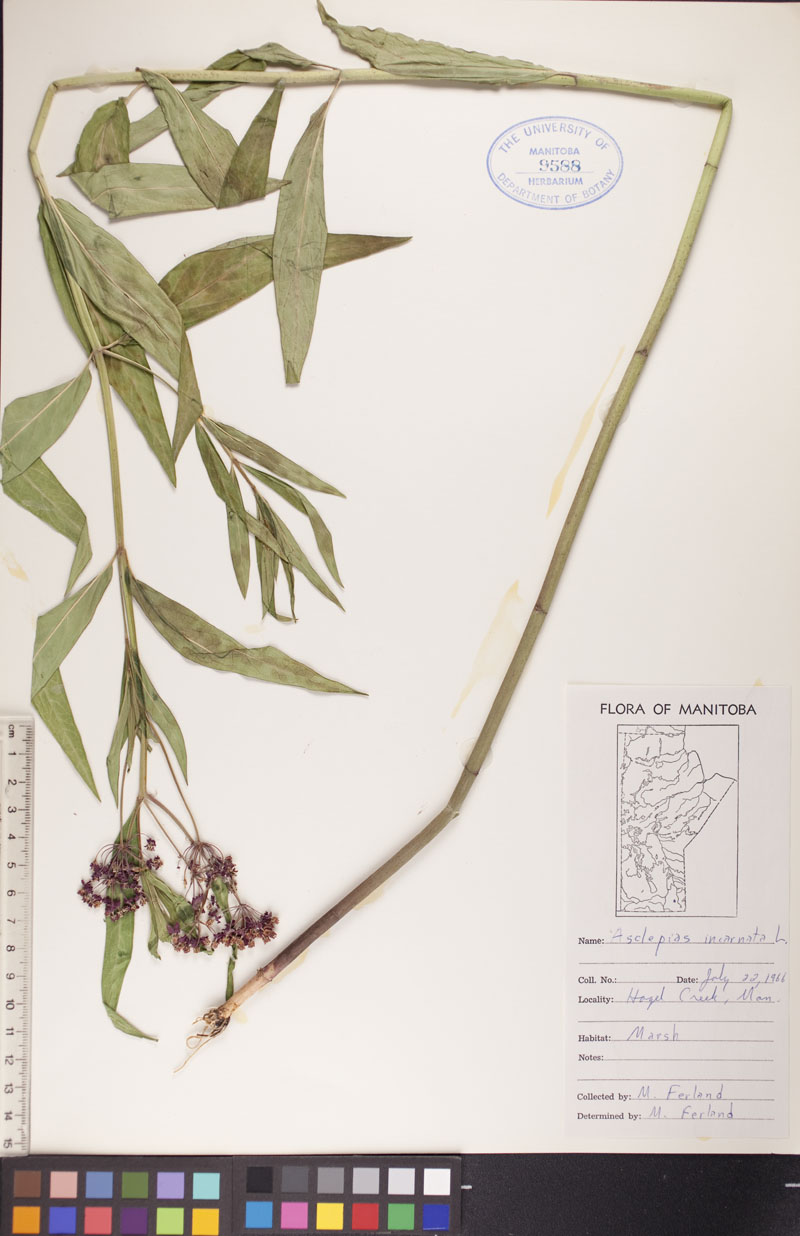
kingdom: Plantae
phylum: Tracheophyta
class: Magnoliopsida
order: Gentianales
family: Apocynaceae
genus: Asclepias
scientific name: Asclepias incarnata
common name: Swamp milkweed
